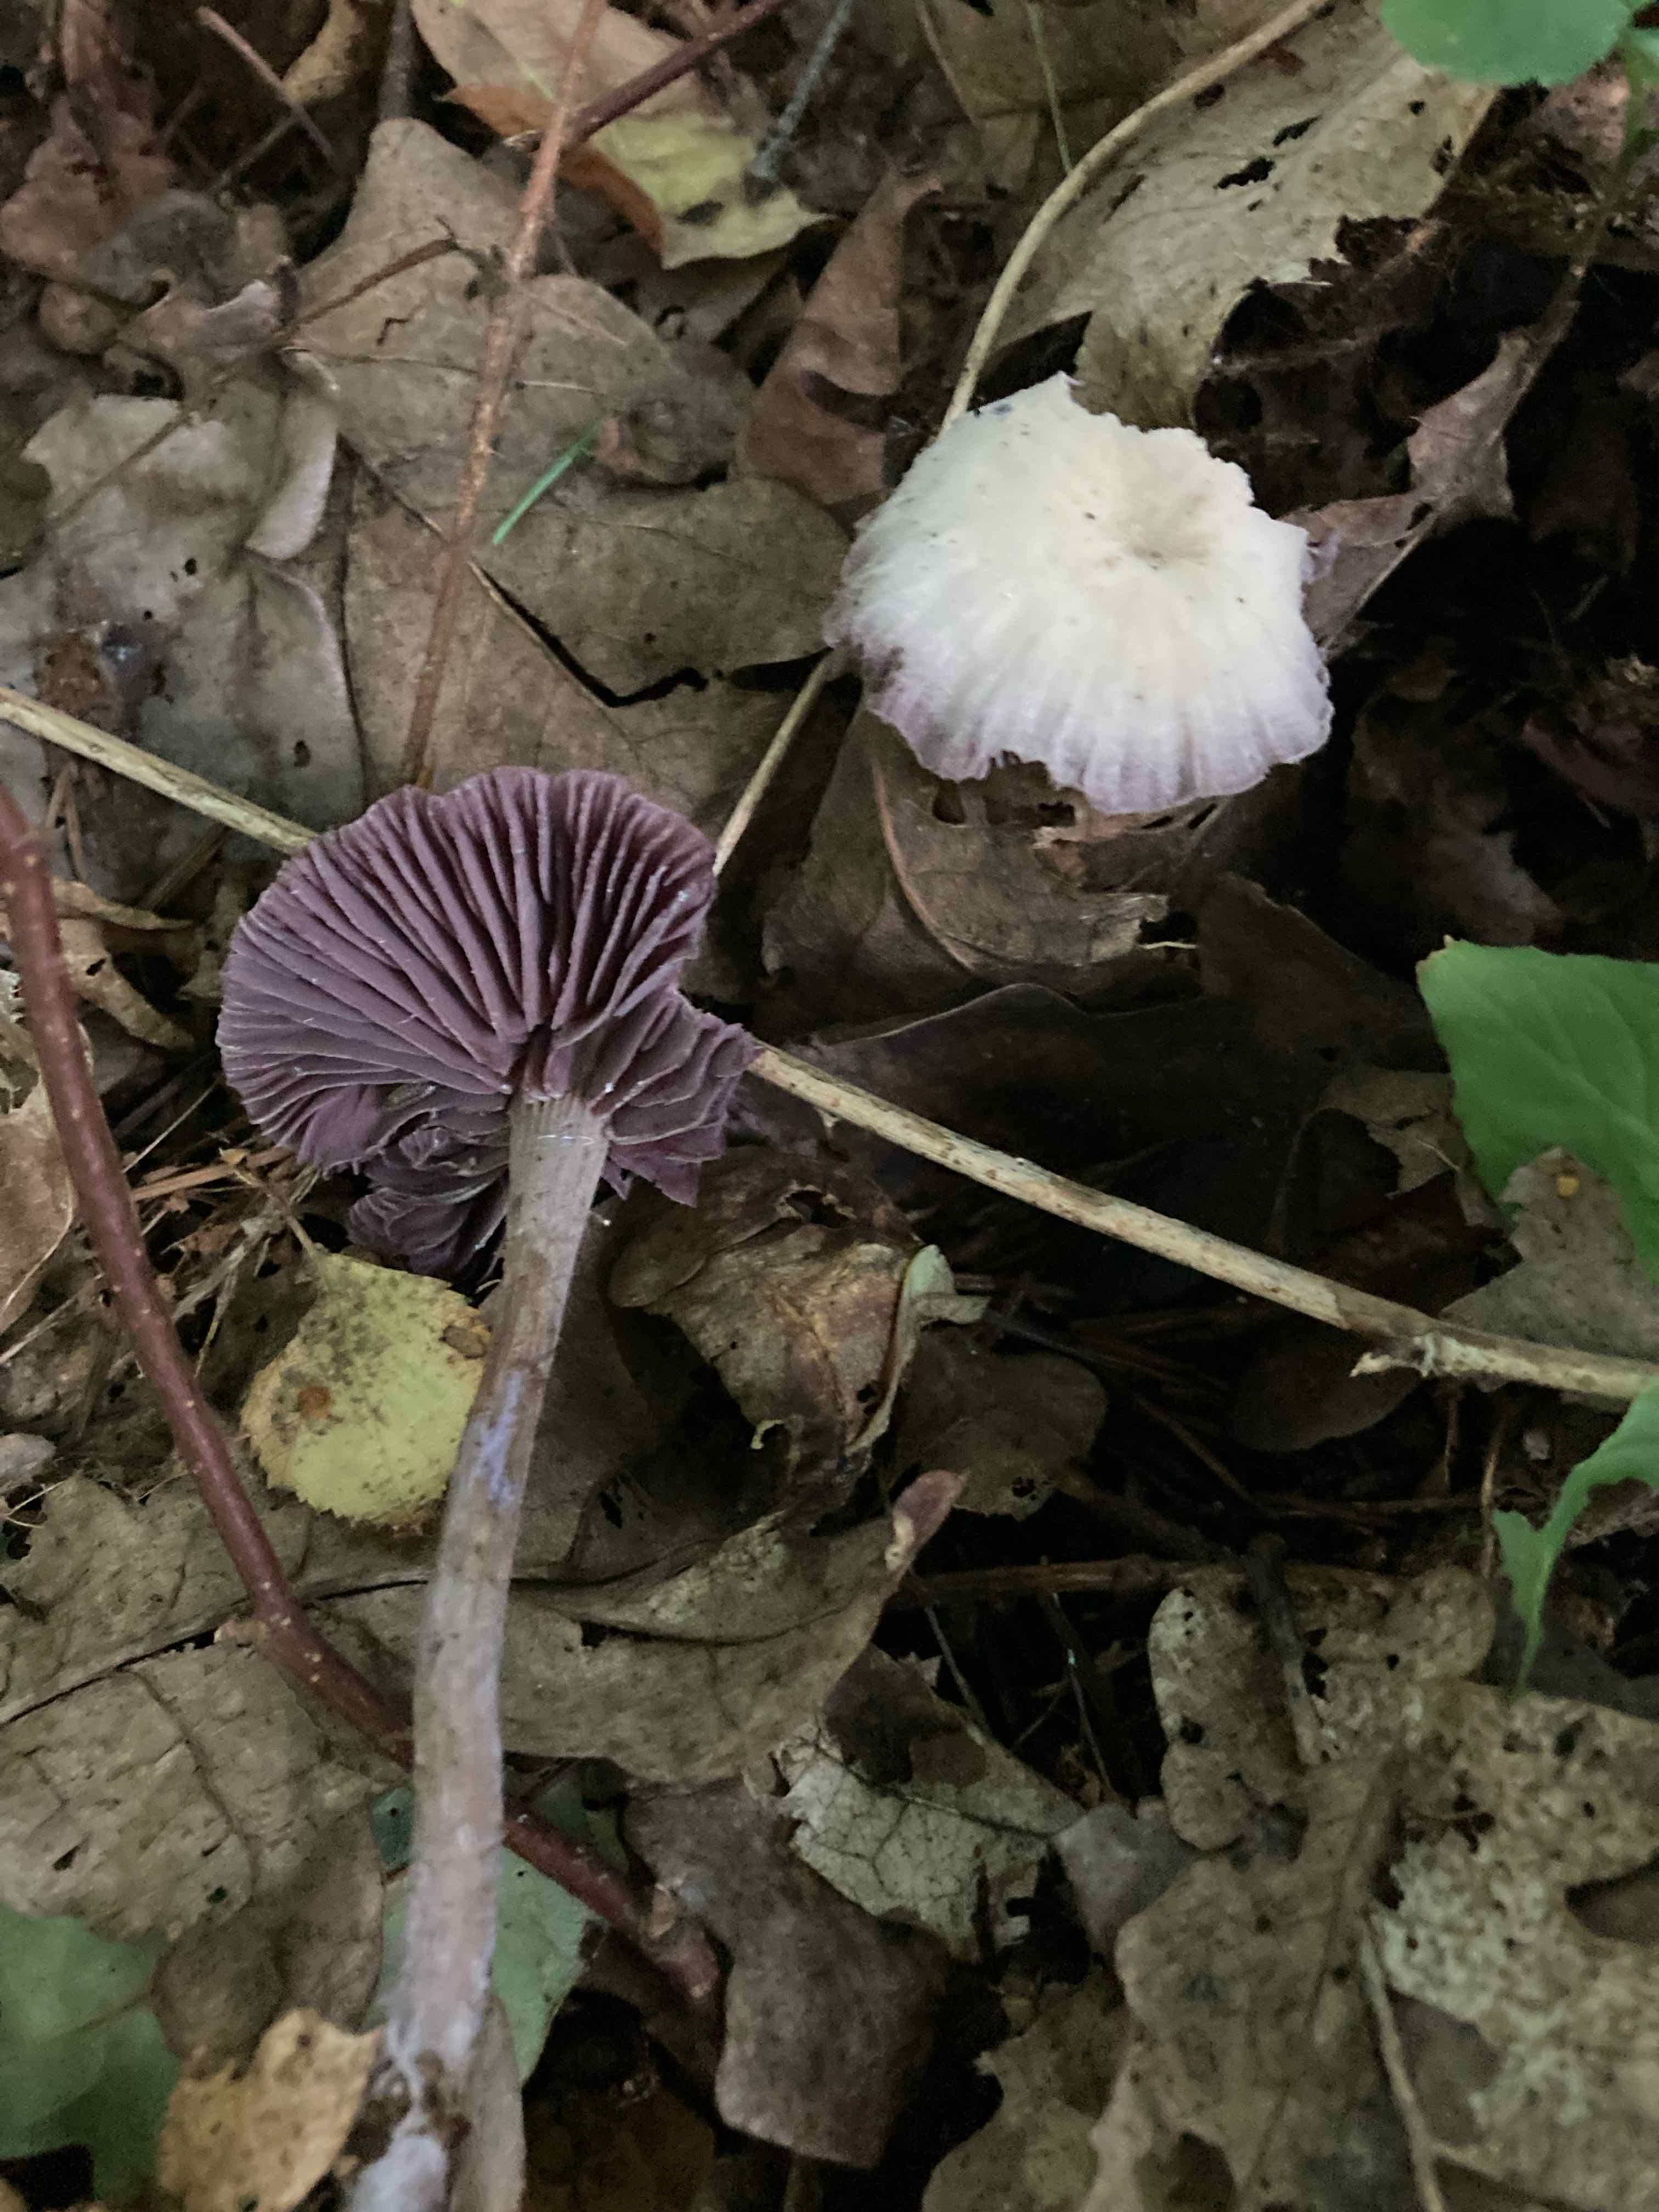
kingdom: Fungi
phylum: Basidiomycota
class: Agaricomycetes
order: Agaricales
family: Hydnangiaceae
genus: Laccaria
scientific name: Laccaria amethystina
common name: violet ametysthat
